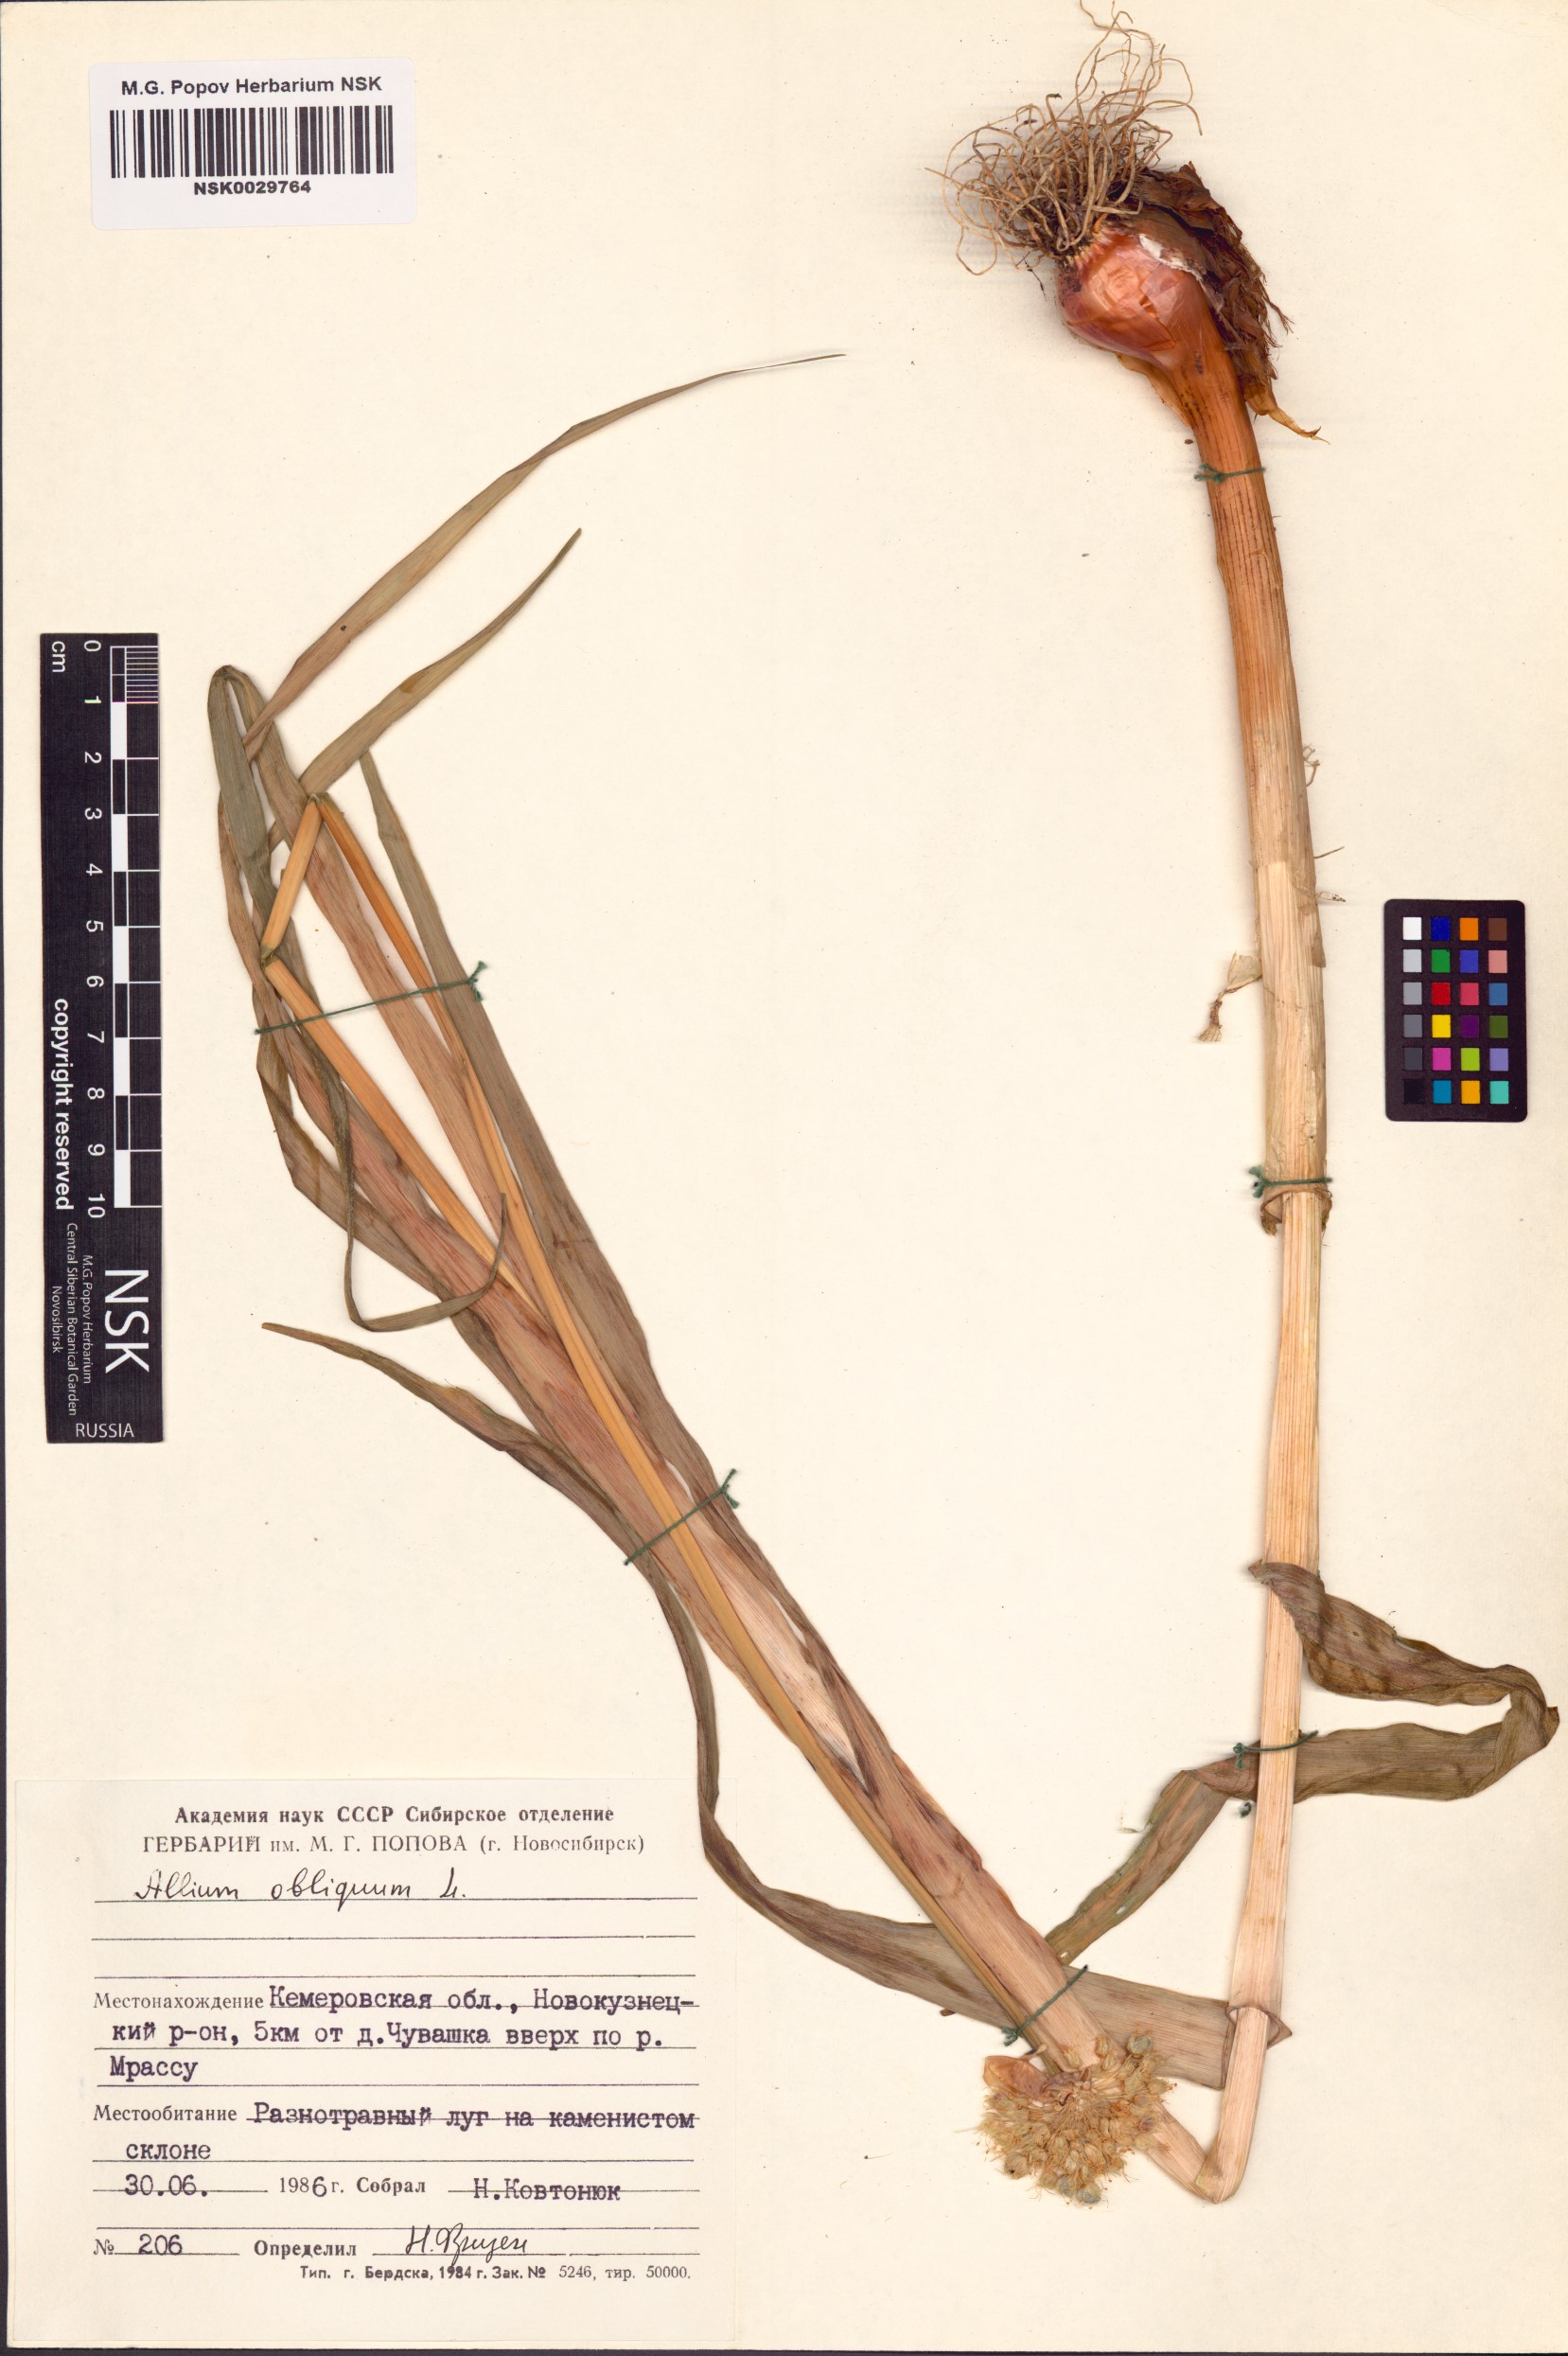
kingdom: Plantae
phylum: Tracheophyta
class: Liliopsida
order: Asparagales
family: Amaryllidaceae
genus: Allium
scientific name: Allium obliquum
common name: Oblique onion
